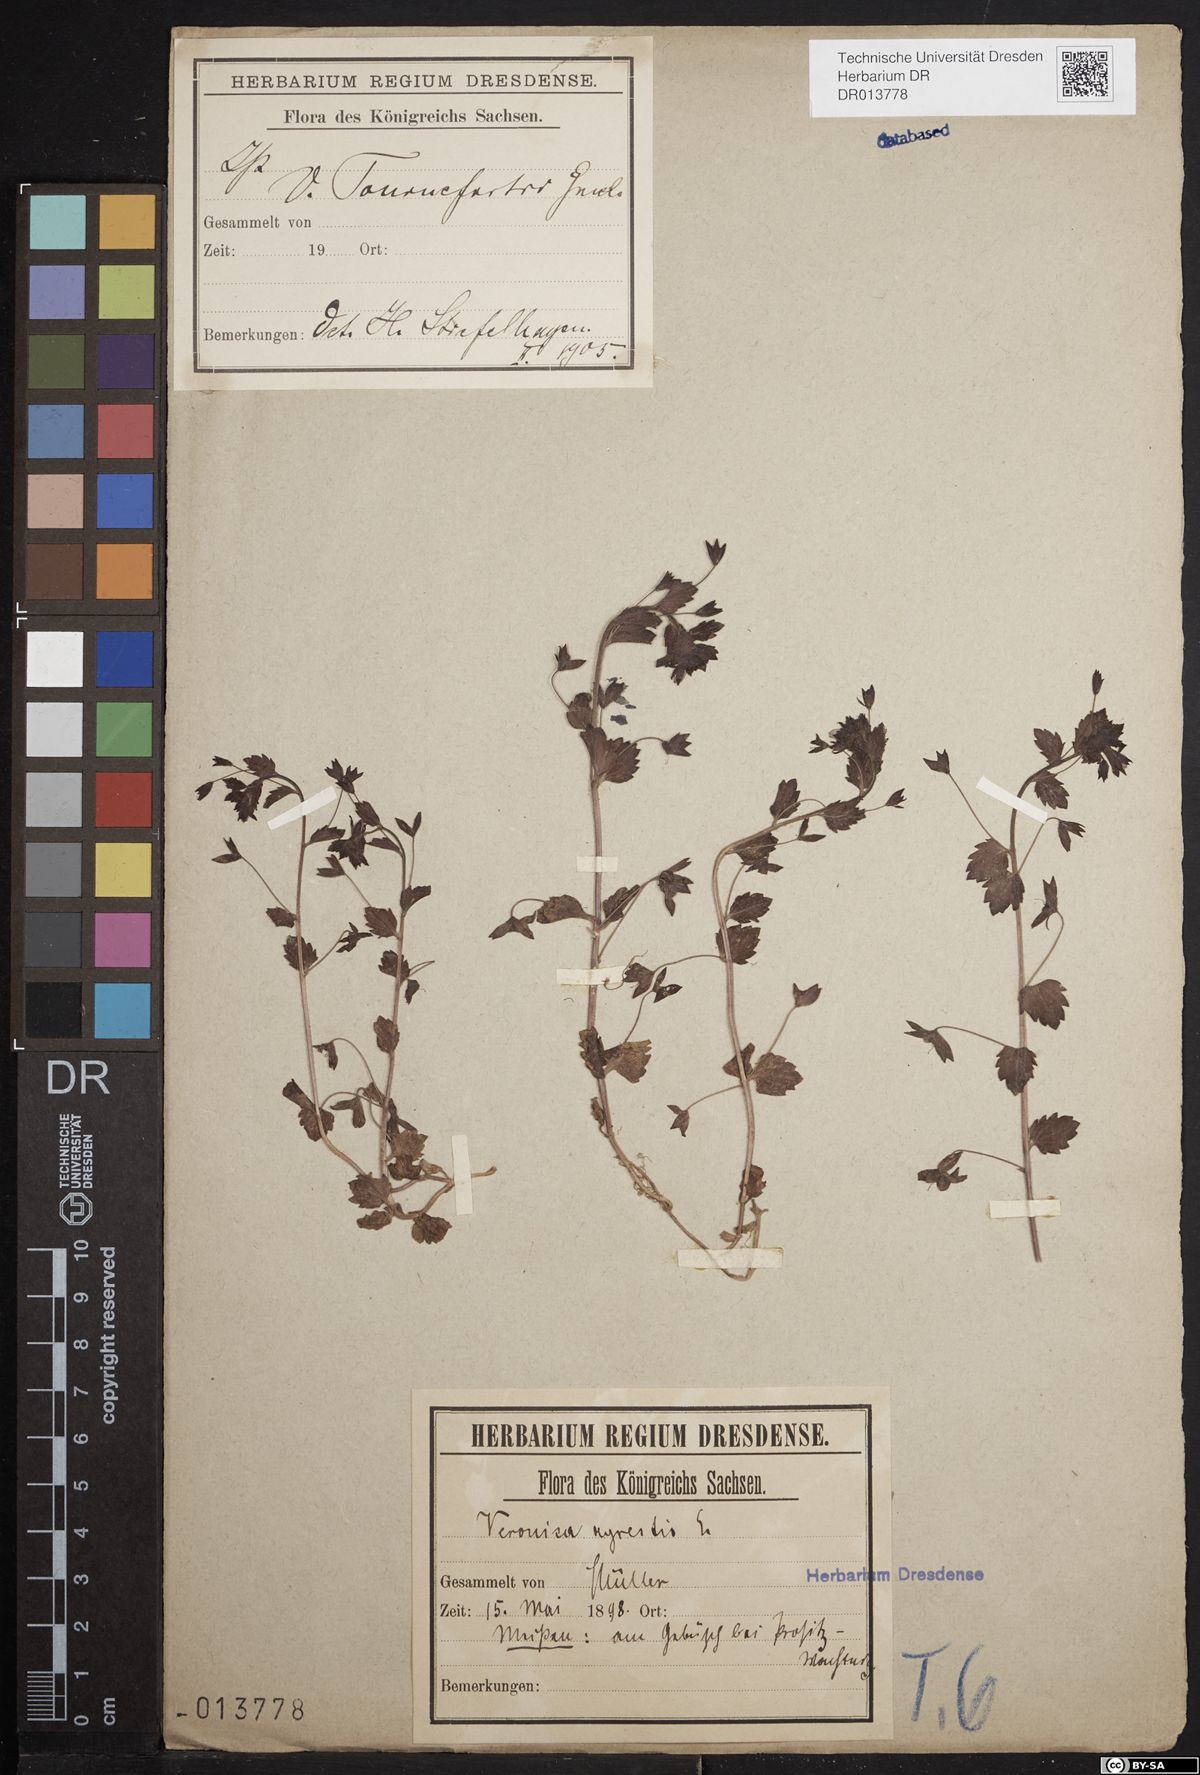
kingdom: Plantae
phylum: Tracheophyta
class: Magnoliopsida
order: Lamiales
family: Plantaginaceae
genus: Veronica
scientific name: Veronica persica
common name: Common field-speedwell
